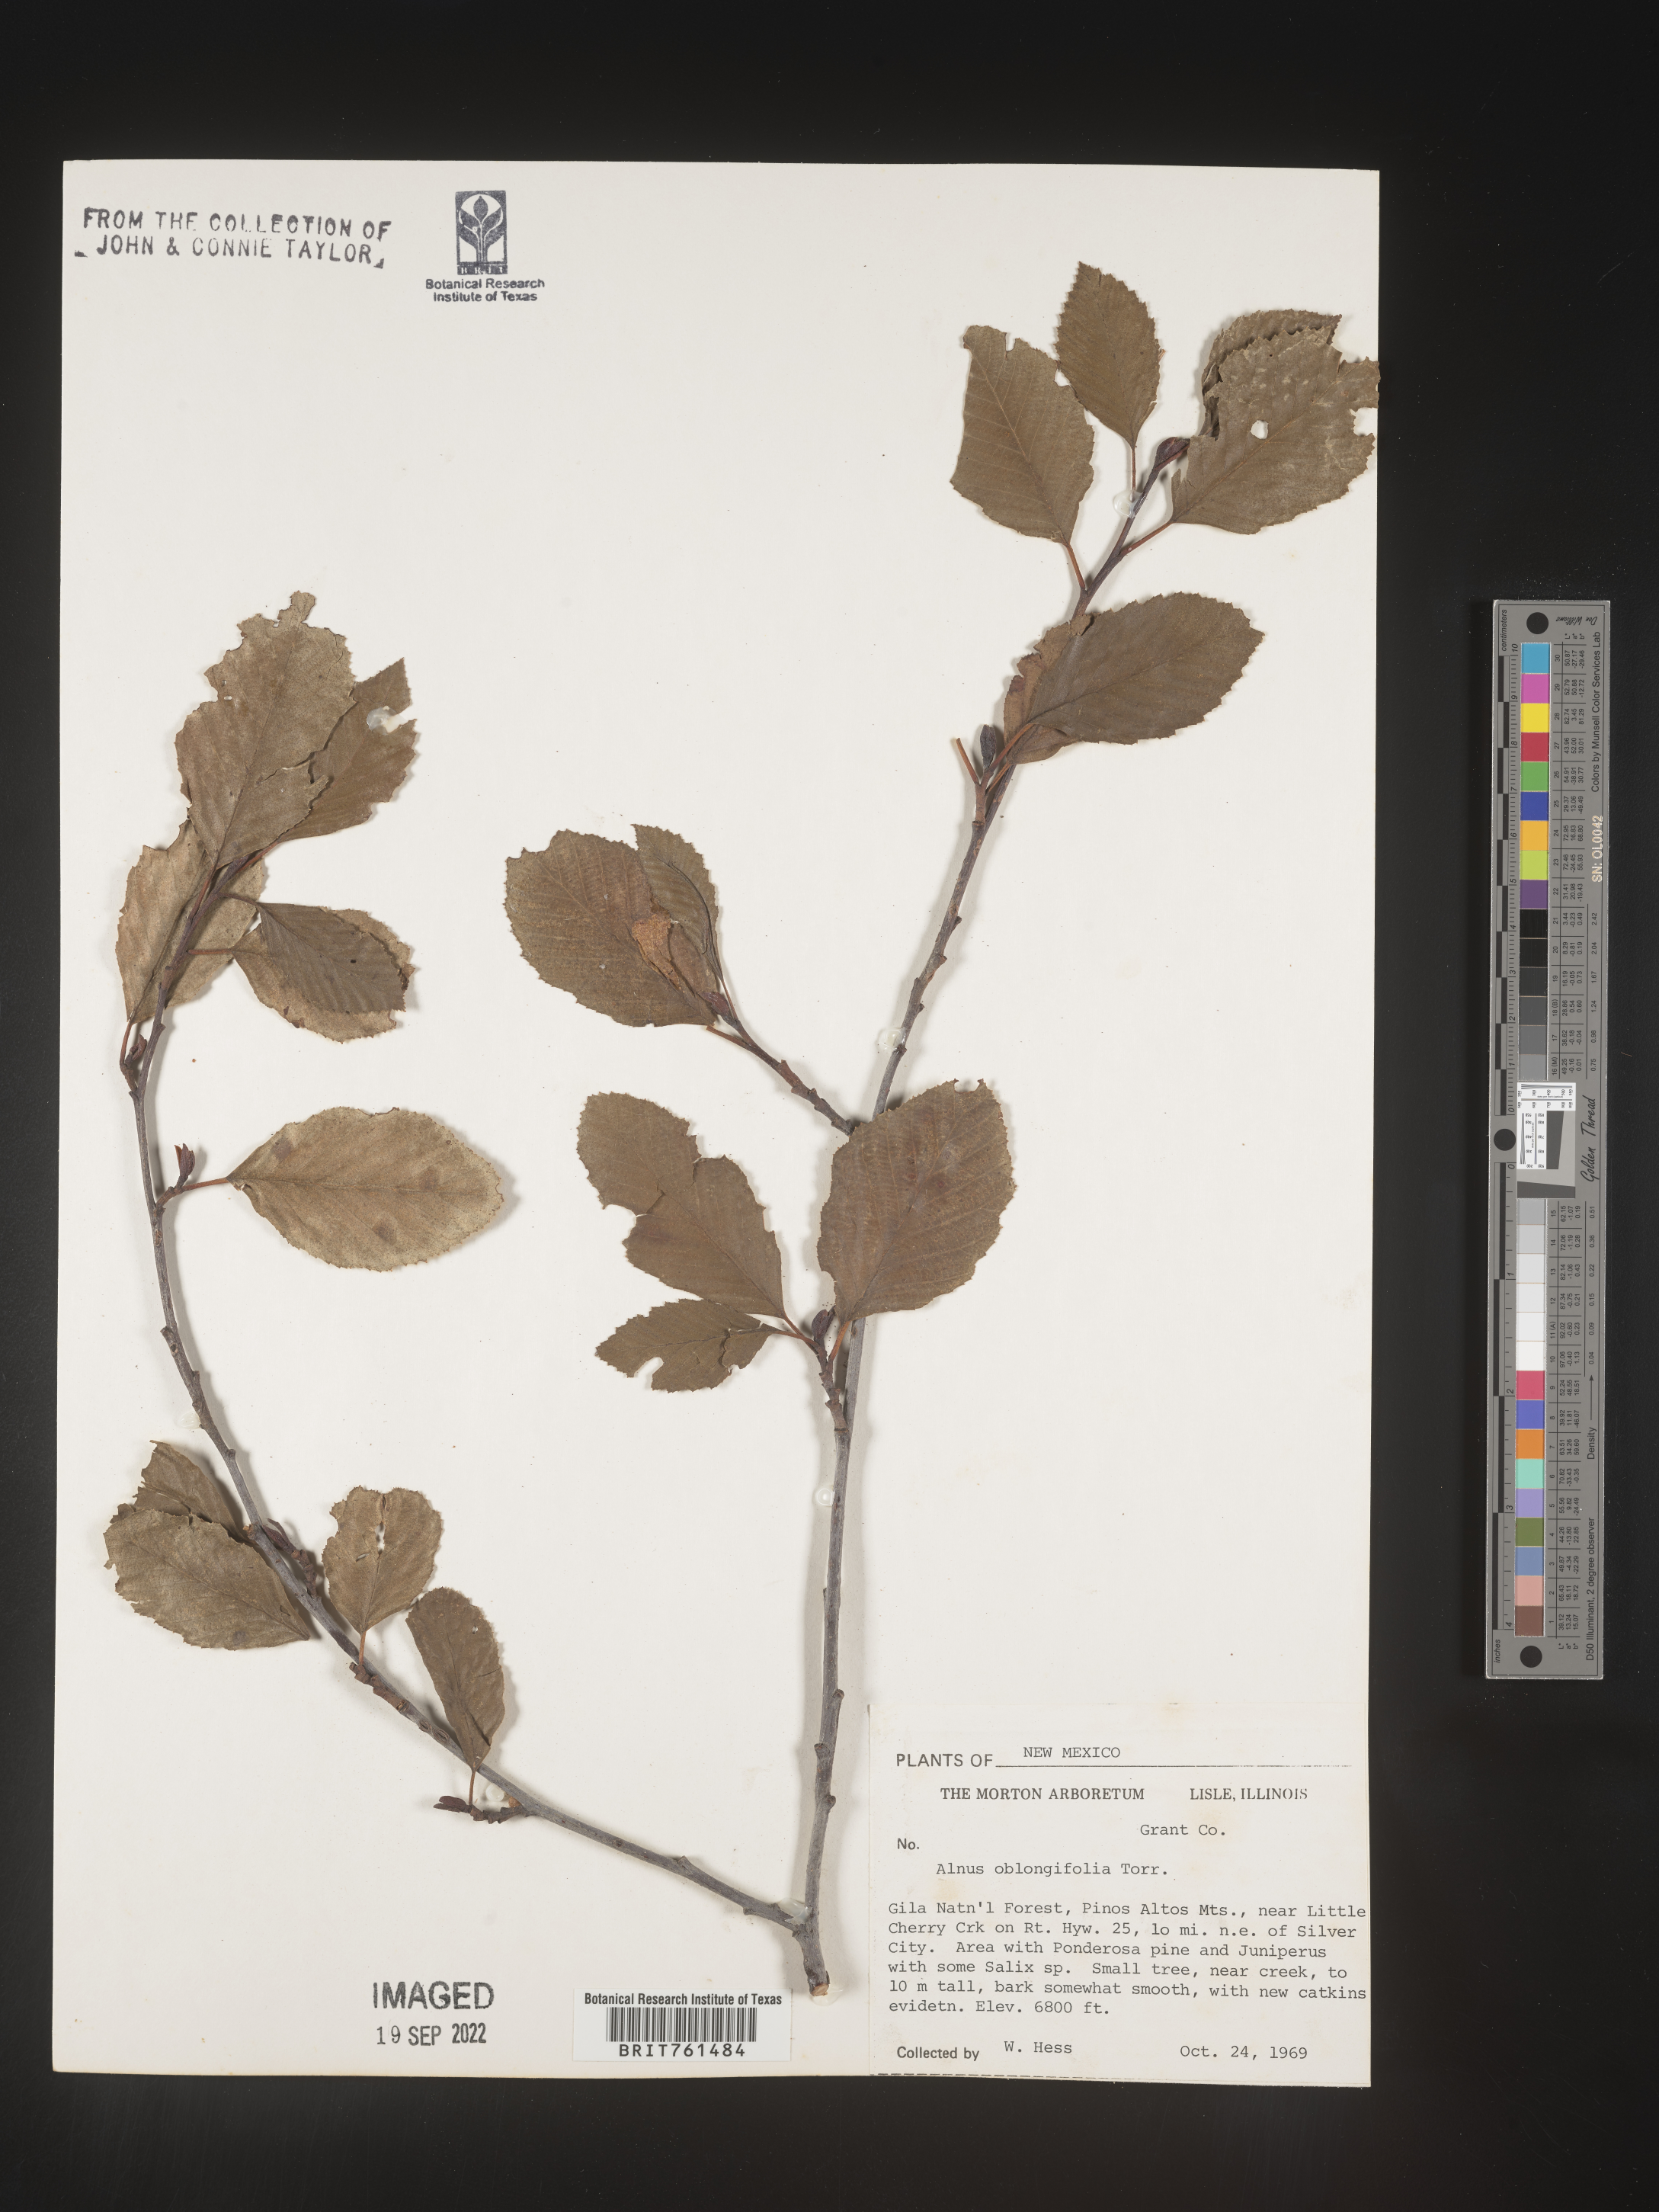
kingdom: Plantae
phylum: Tracheophyta
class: Magnoliopsida
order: Fagales
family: Betulaceae
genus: Alnus
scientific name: Alnus
